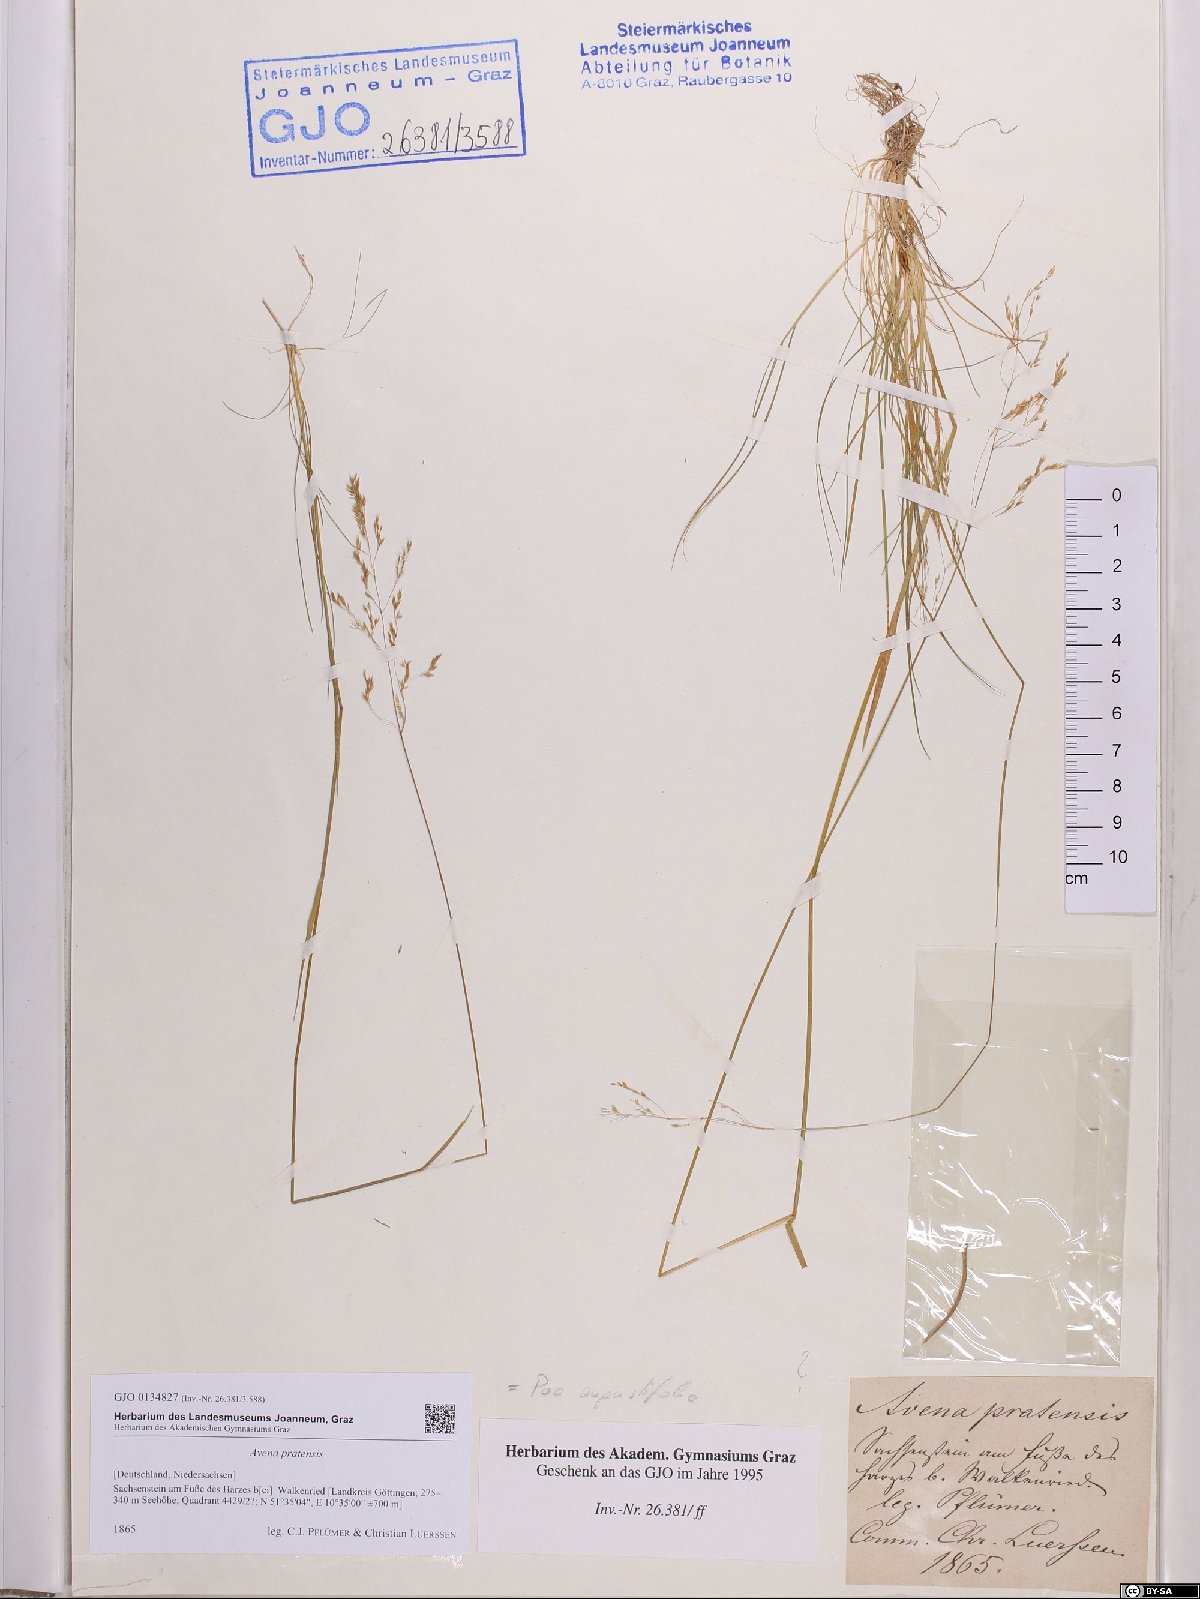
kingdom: Plantae
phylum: Tracheophyta
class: Liliopsida
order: Poales
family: Poaceae
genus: Helictochloa
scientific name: Helictochloa pratensis
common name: Meadow oat grass
